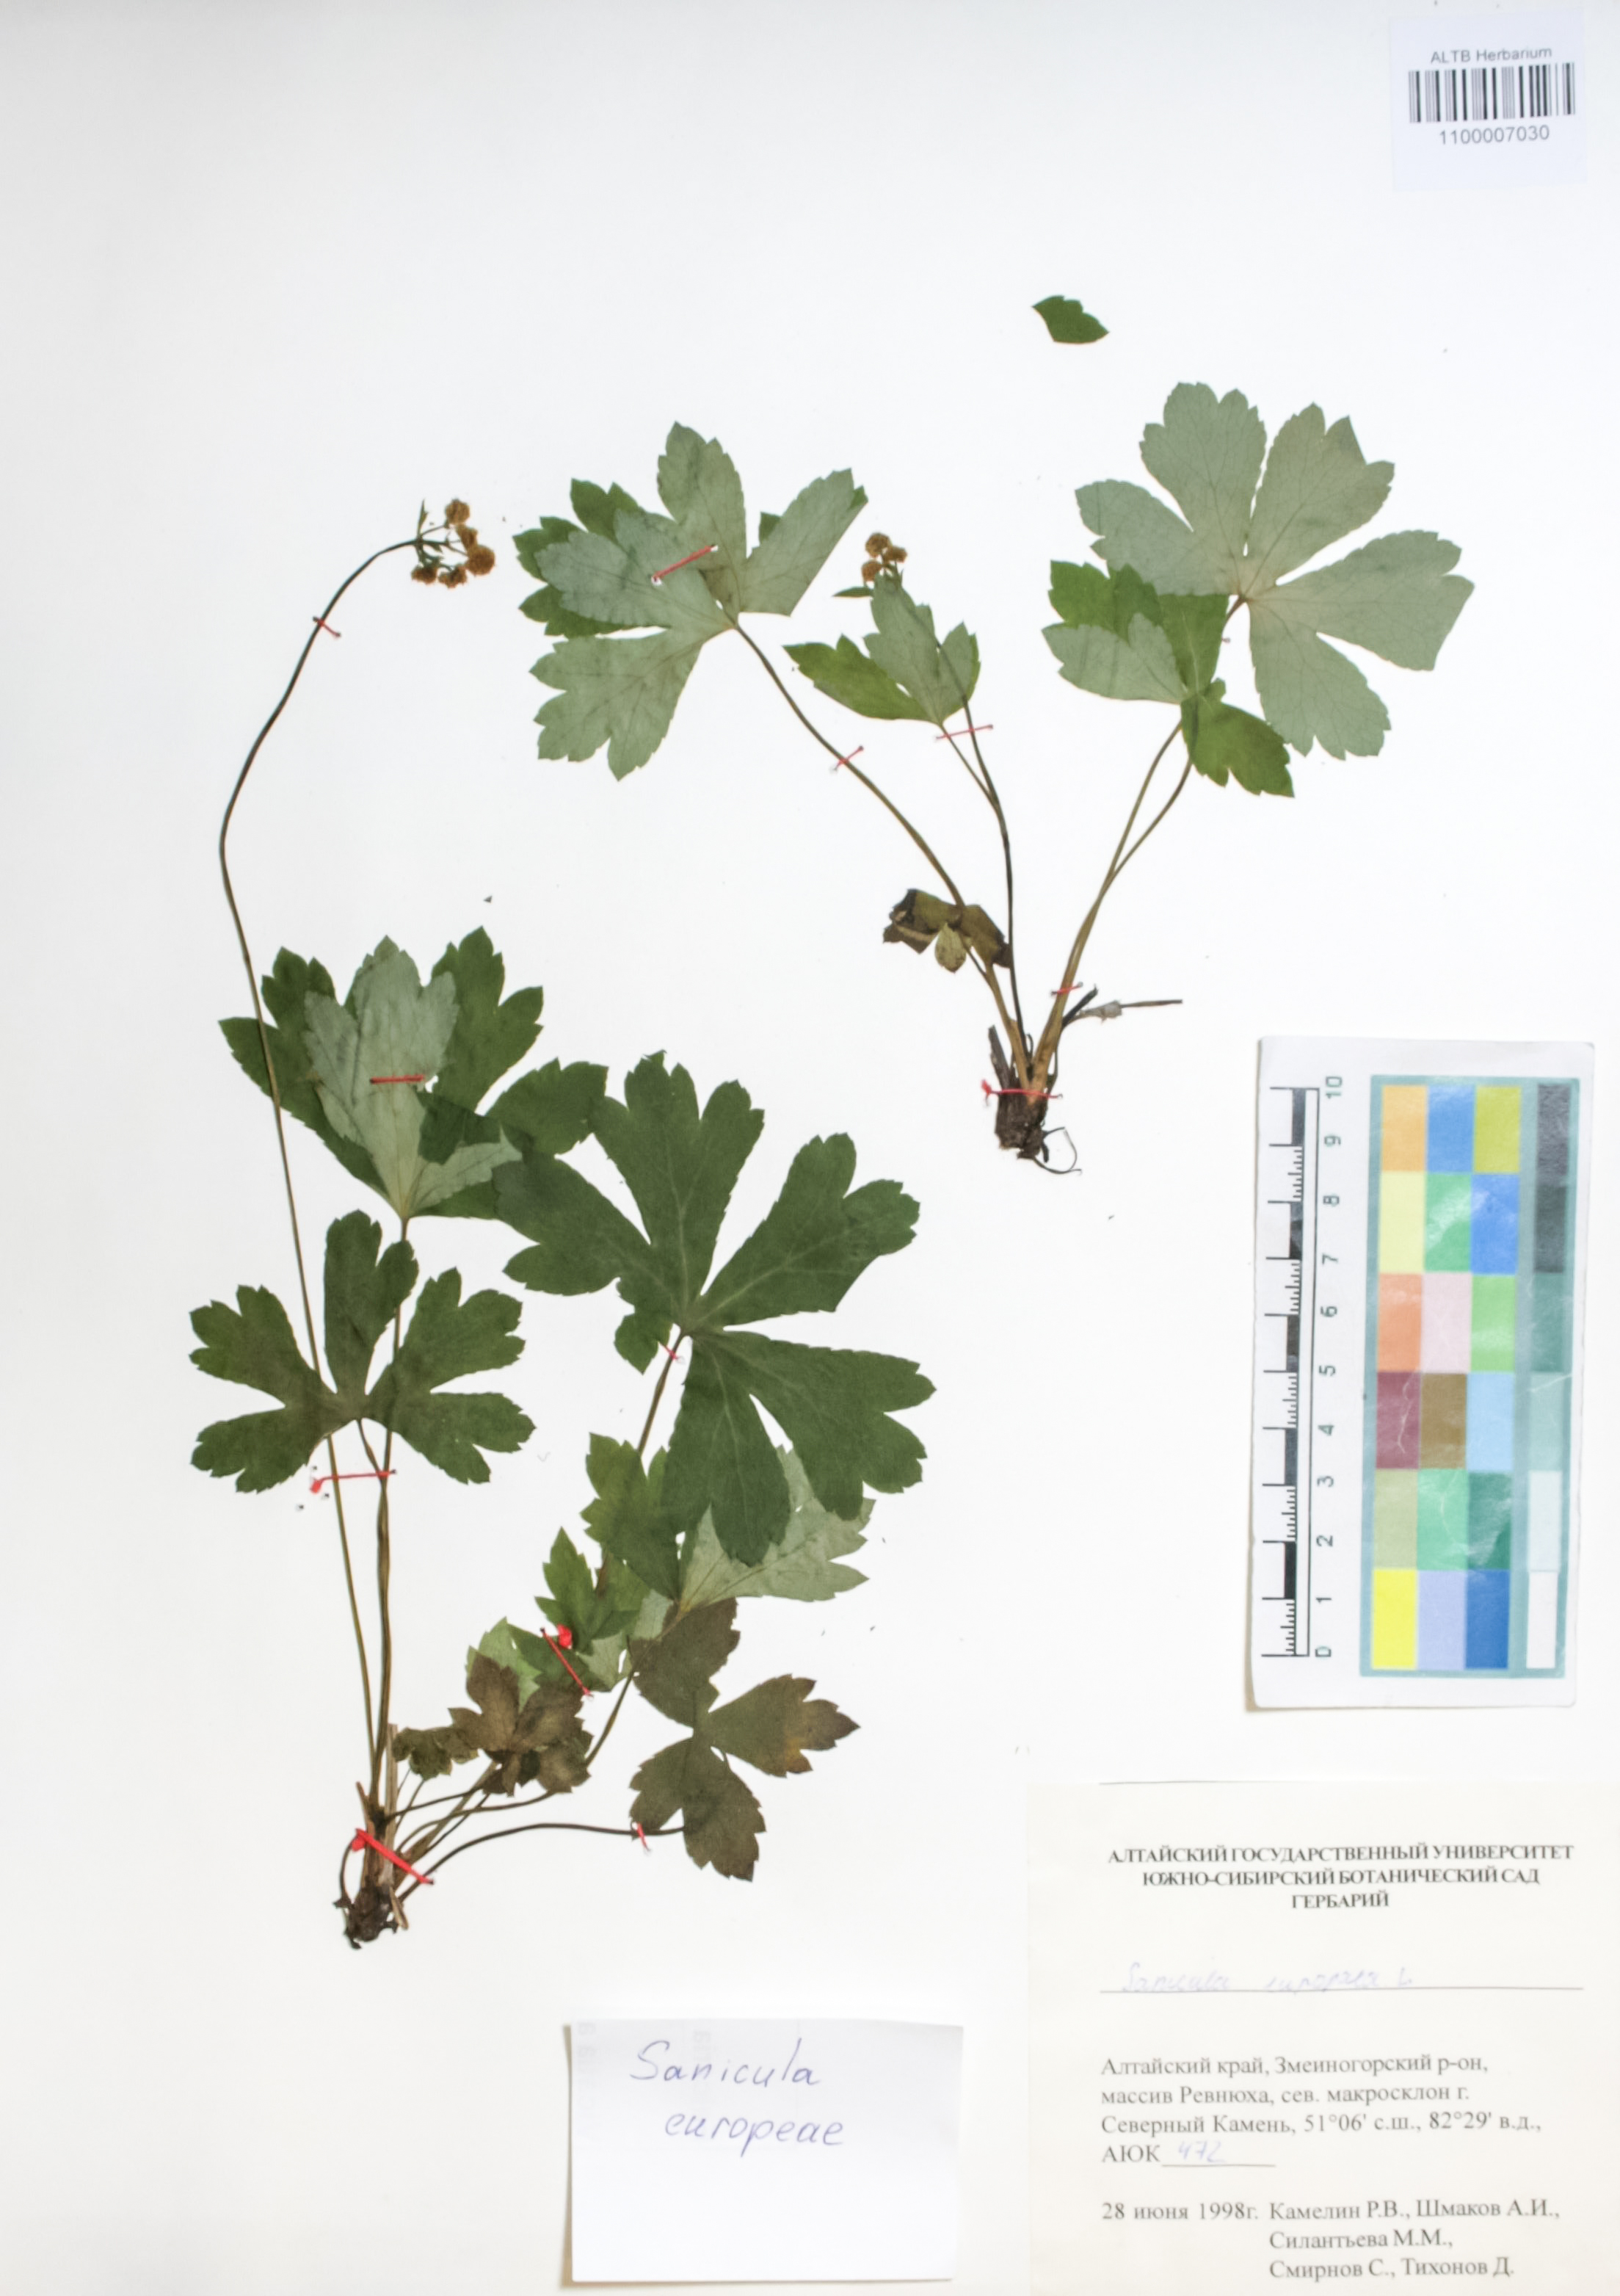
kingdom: Plantae
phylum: Tracheophyta
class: Magnoliopsida
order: Apiales
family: Apiaceae
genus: Sanicula
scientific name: Sanicula europaea
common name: Sanicle
